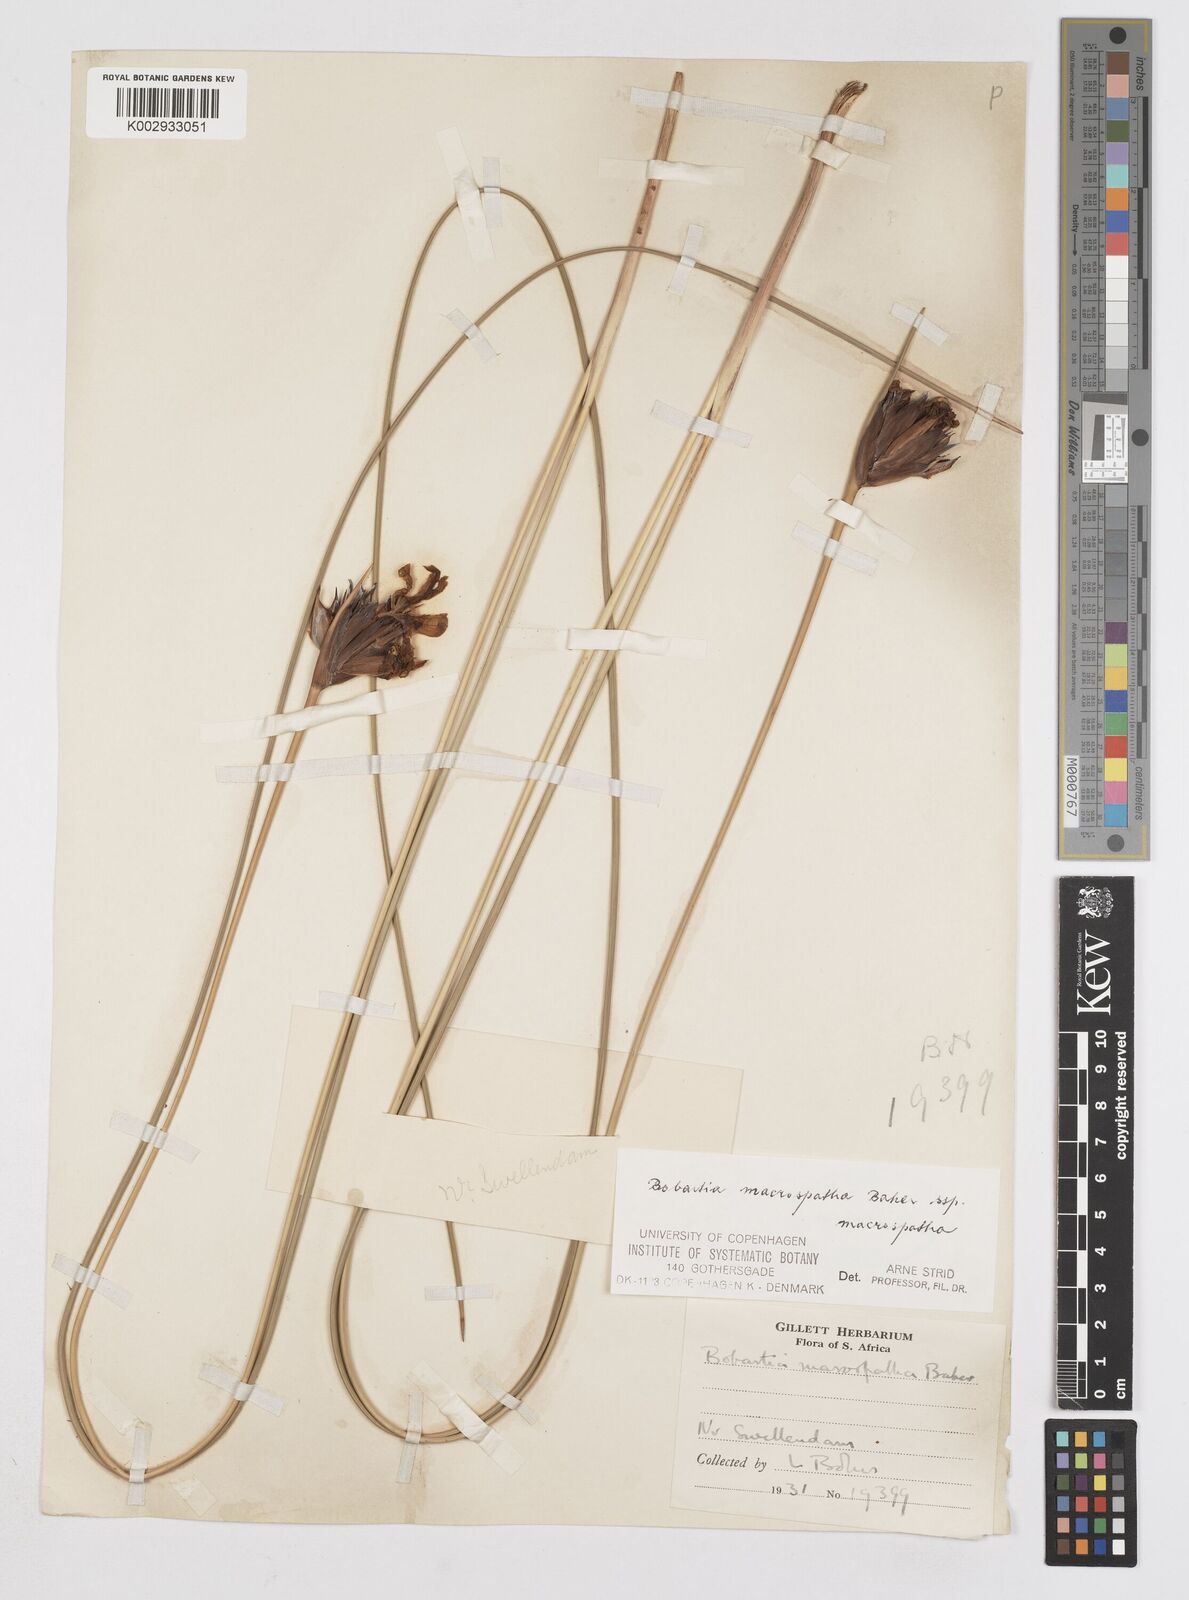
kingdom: Plantae
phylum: Tracheophyta
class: Liliopsida
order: Asparagales
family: Iridaceae
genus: Bobartia
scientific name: Bobartia macrospatha
